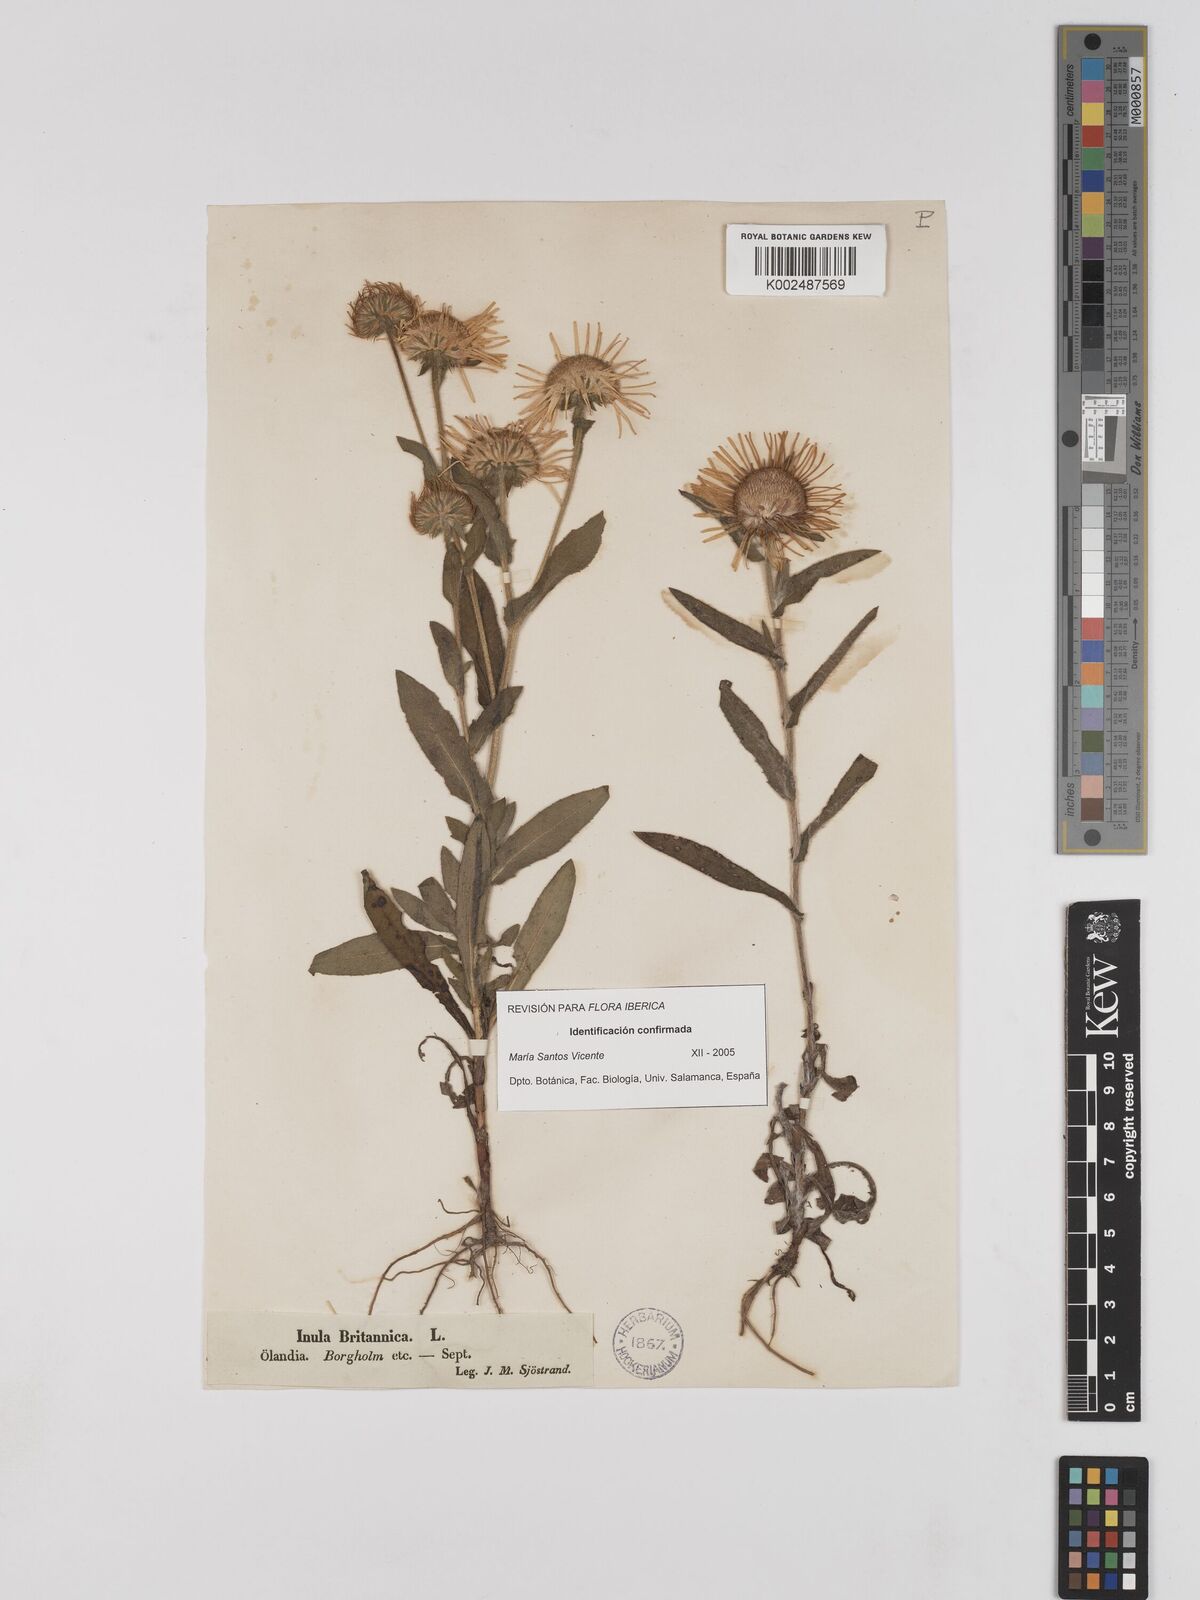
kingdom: Plantae
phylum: Tracheophyta
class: Magnoliopsida
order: Asterales
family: Asteraceae
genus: Pentanema
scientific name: Pentanema britannicum
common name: British elecampane
